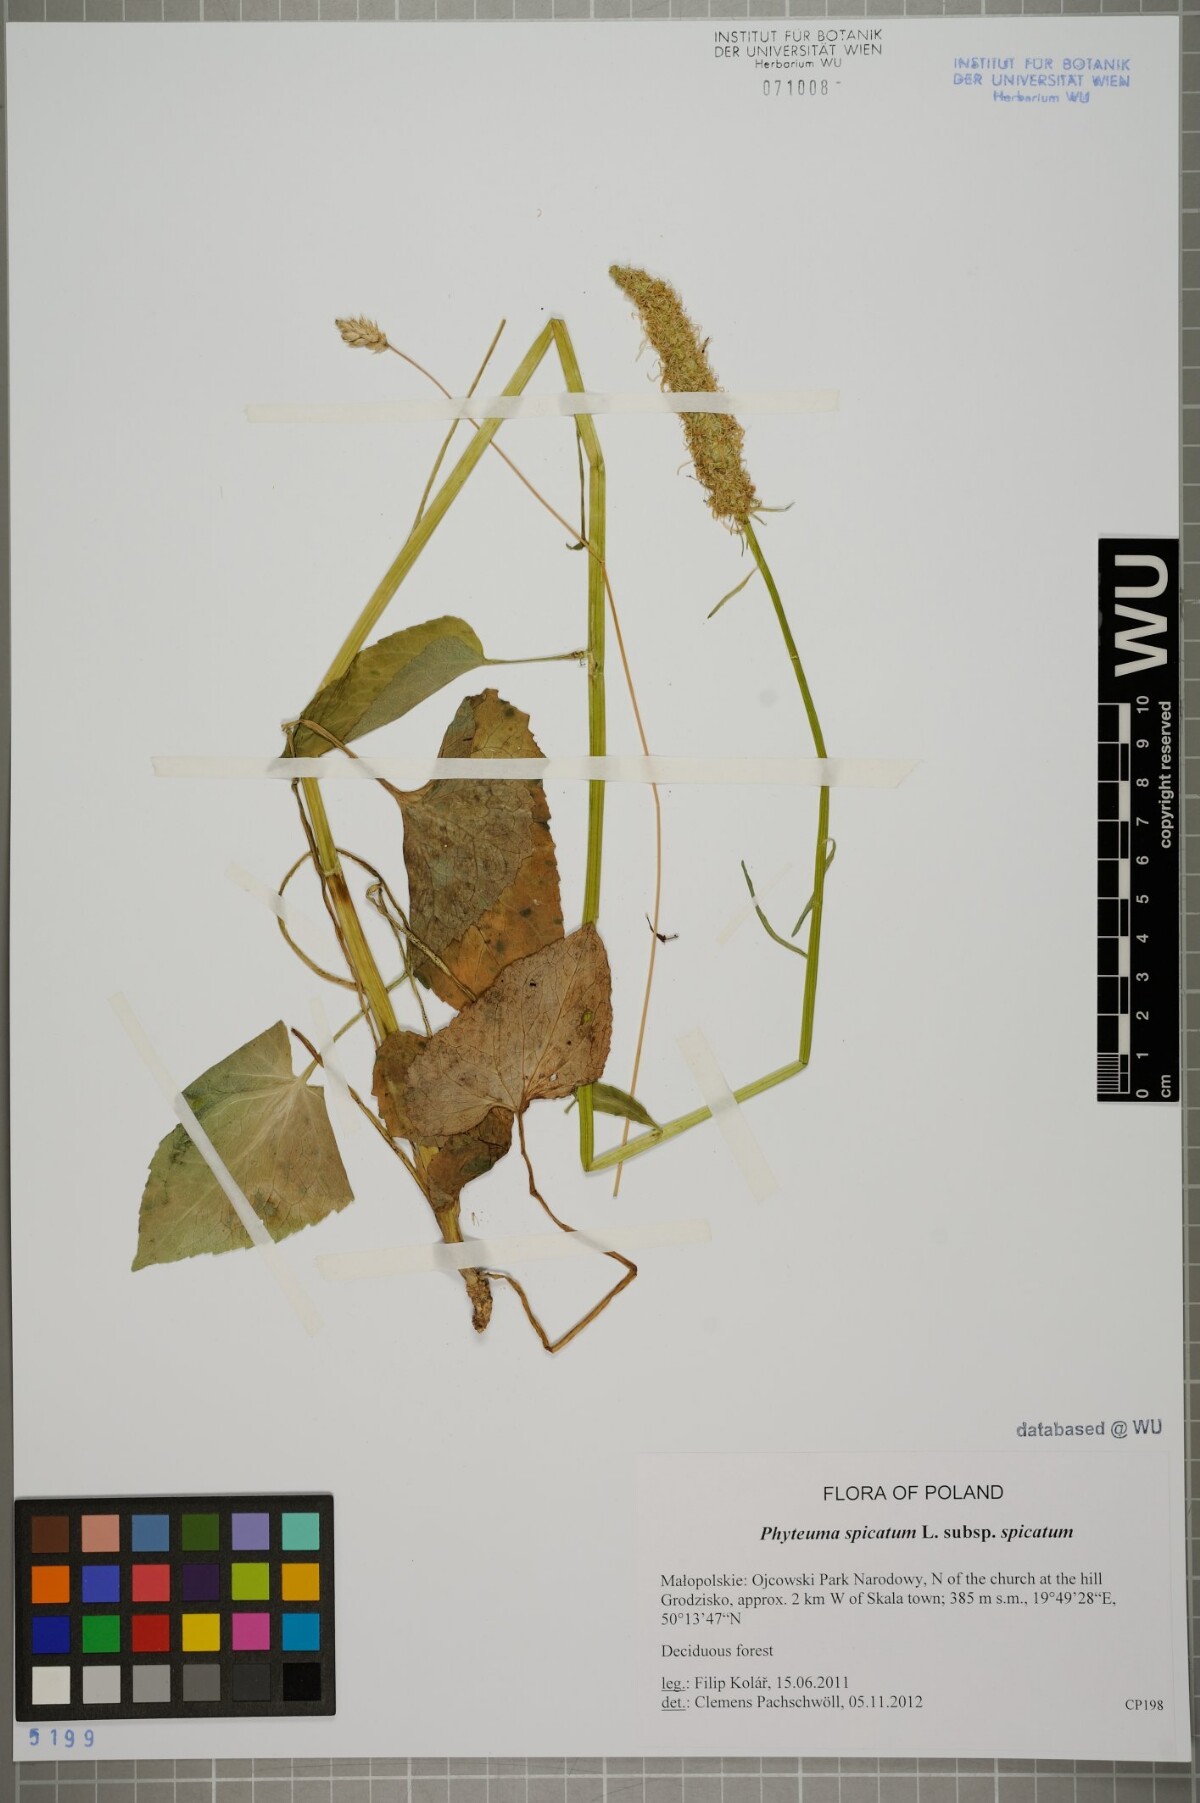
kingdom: Plantae
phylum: Tracheophyta
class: Magnoliopsida
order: Asterales
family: Campanulaceae
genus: Phyteuma
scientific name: Phyteuma spicatum
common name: Spiked rampion
